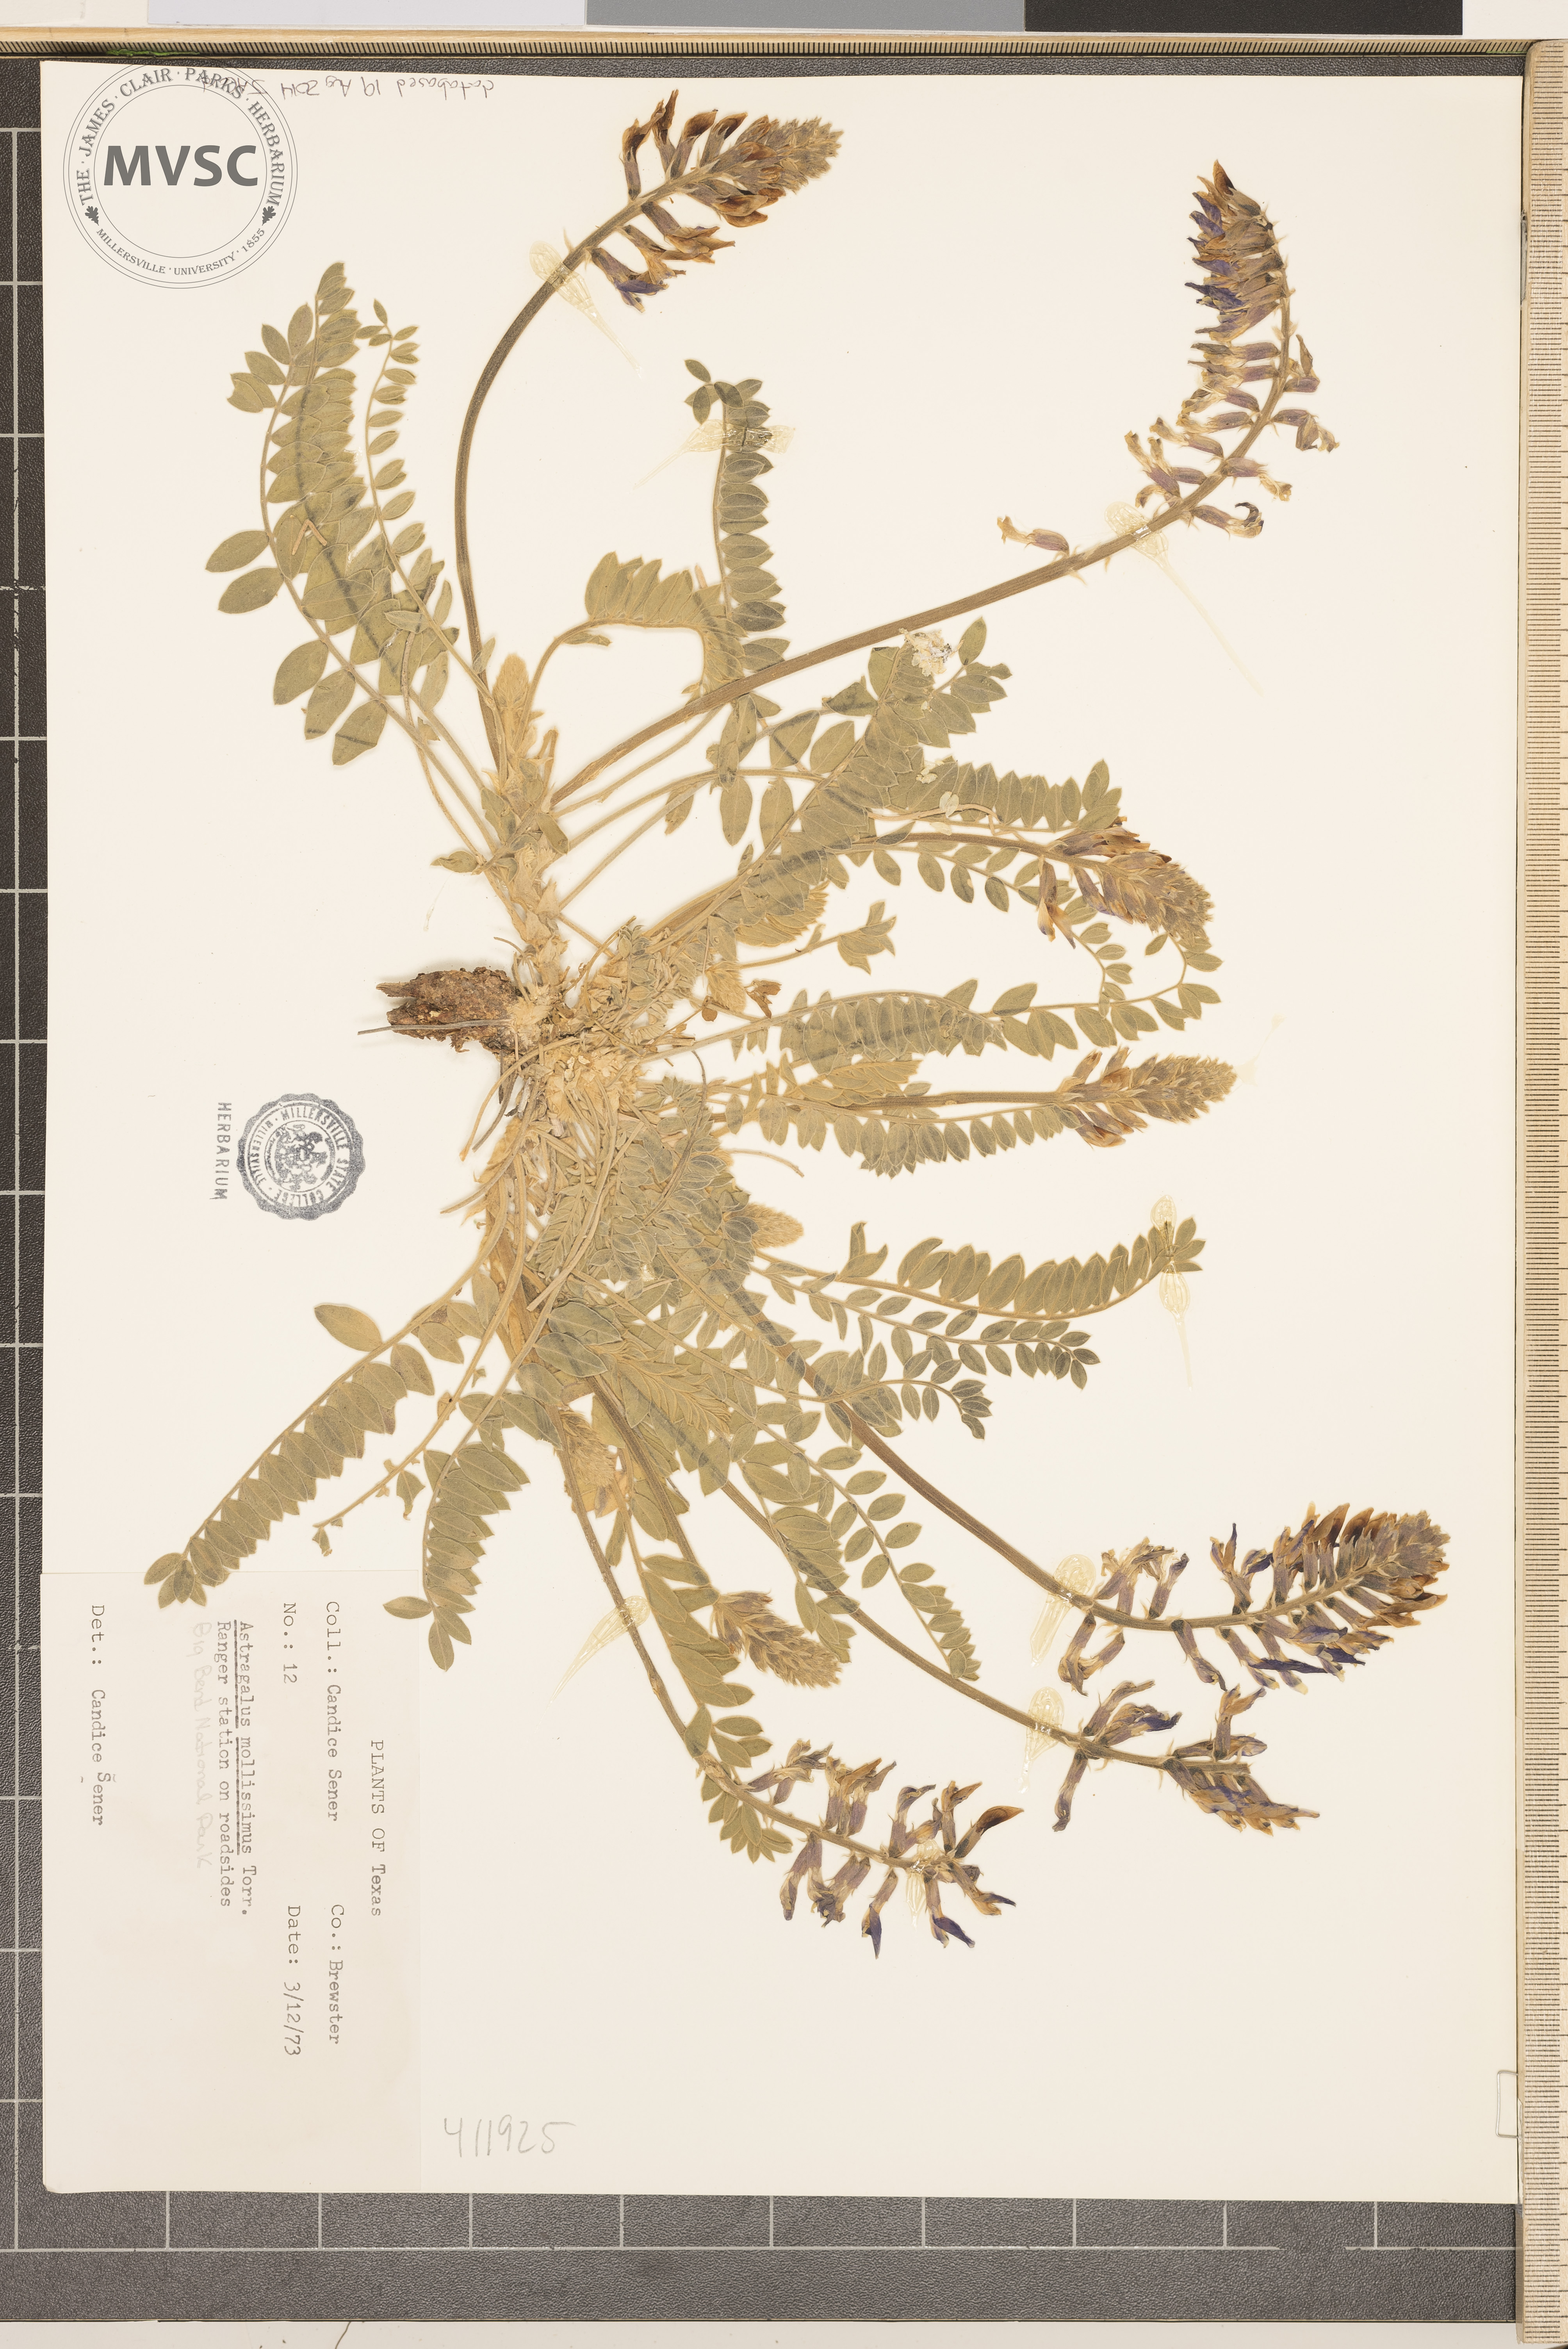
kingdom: Plantae
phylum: Tracheophyta
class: Magnoliopsida
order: Fabales
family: Fabaceae
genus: Astragalus
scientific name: Astragalus mollissimus
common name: Woolly locoweed
